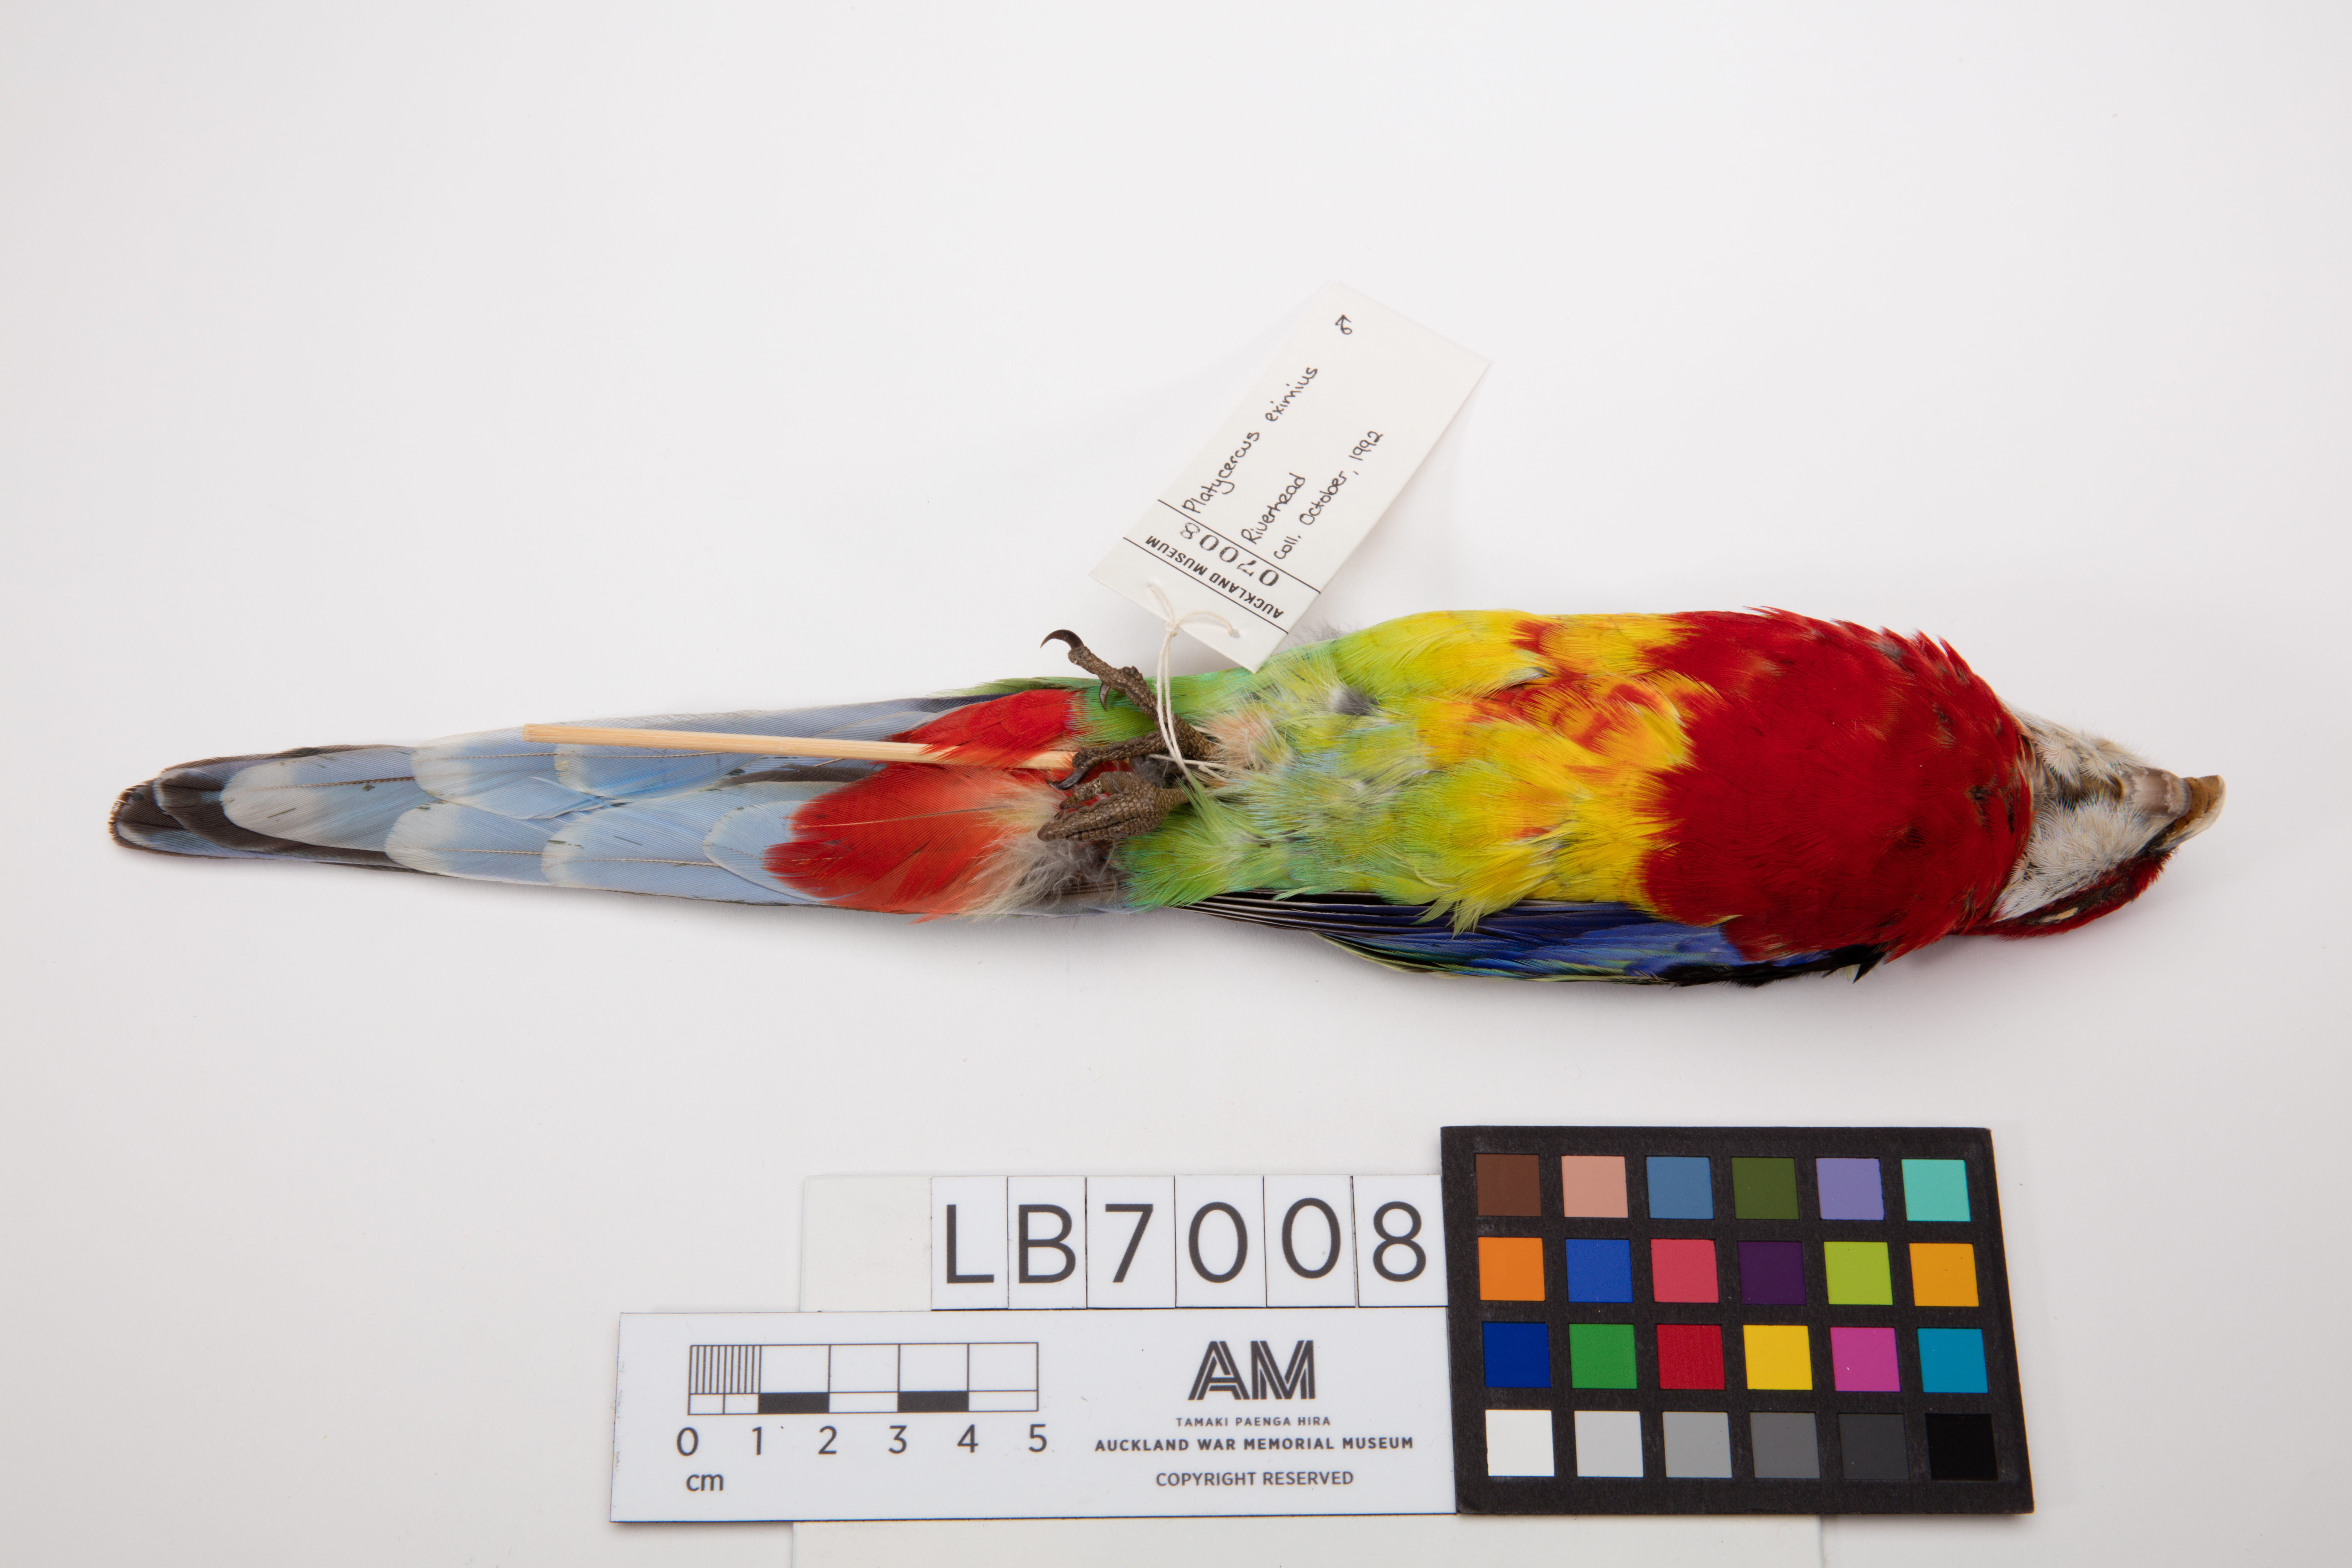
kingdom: Animalia
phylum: Chordata
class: Aves
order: Psittaciformes
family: Psittacidae
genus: Platycercus
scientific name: Platycercus eximius
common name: Eastern rosella
